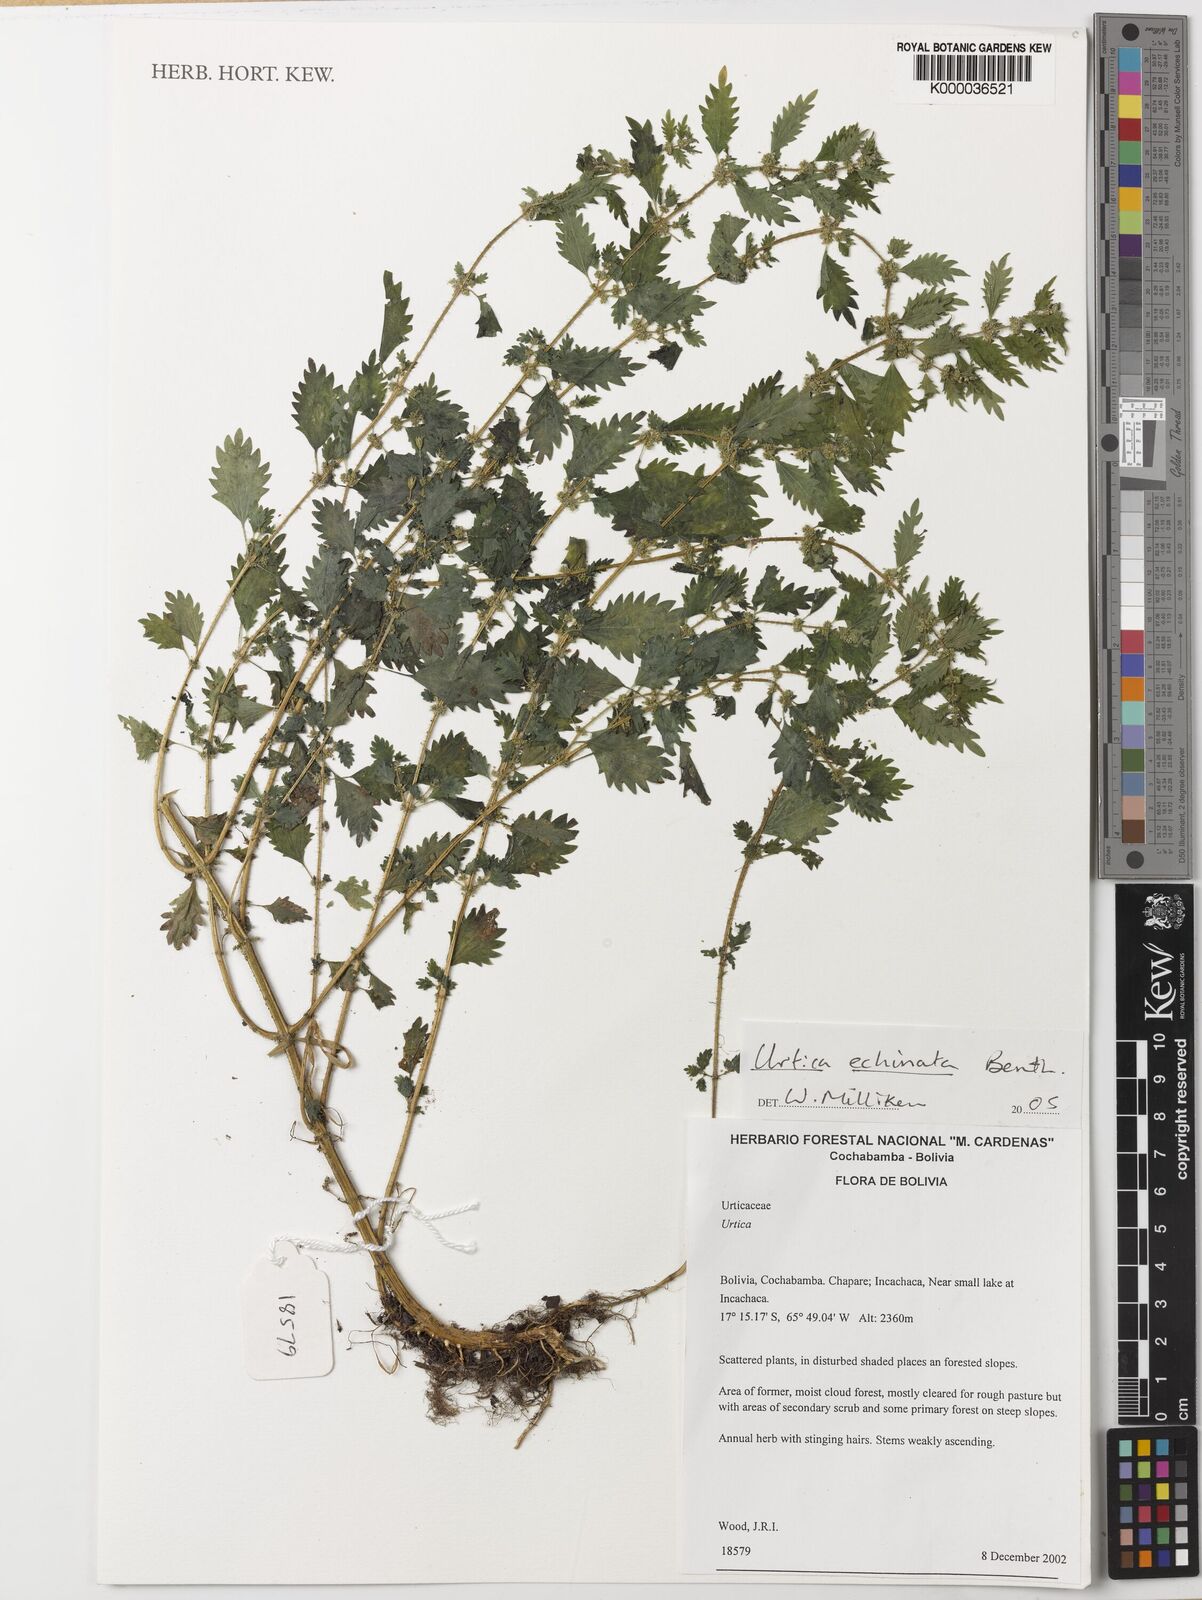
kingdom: Plantae
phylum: Tracheophyta
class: Magnoliopsida
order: Rosales
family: Urticaceae
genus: Urtica
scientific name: Urtica echinata
